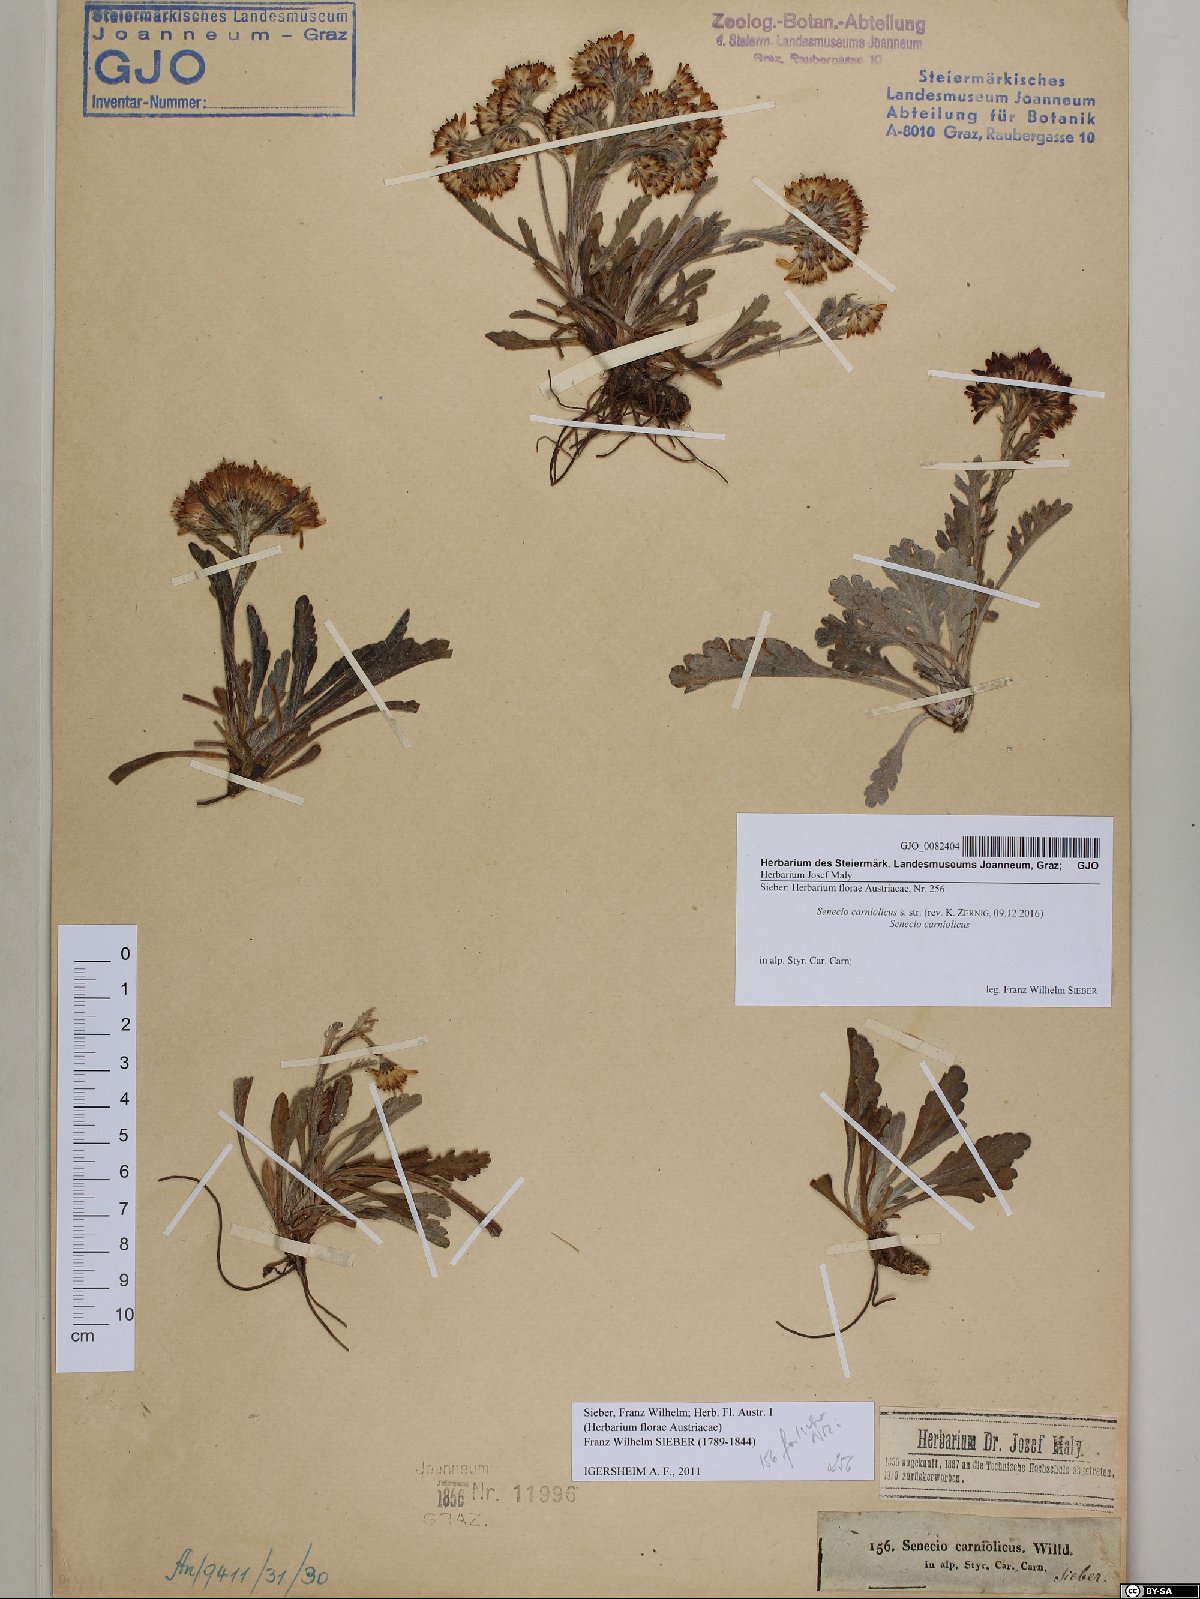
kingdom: Plantae
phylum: Tracheophyta
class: Magnoliopsida
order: Asterales
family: Asteraceae
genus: Jacobaea
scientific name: Jacobaea carniolica
